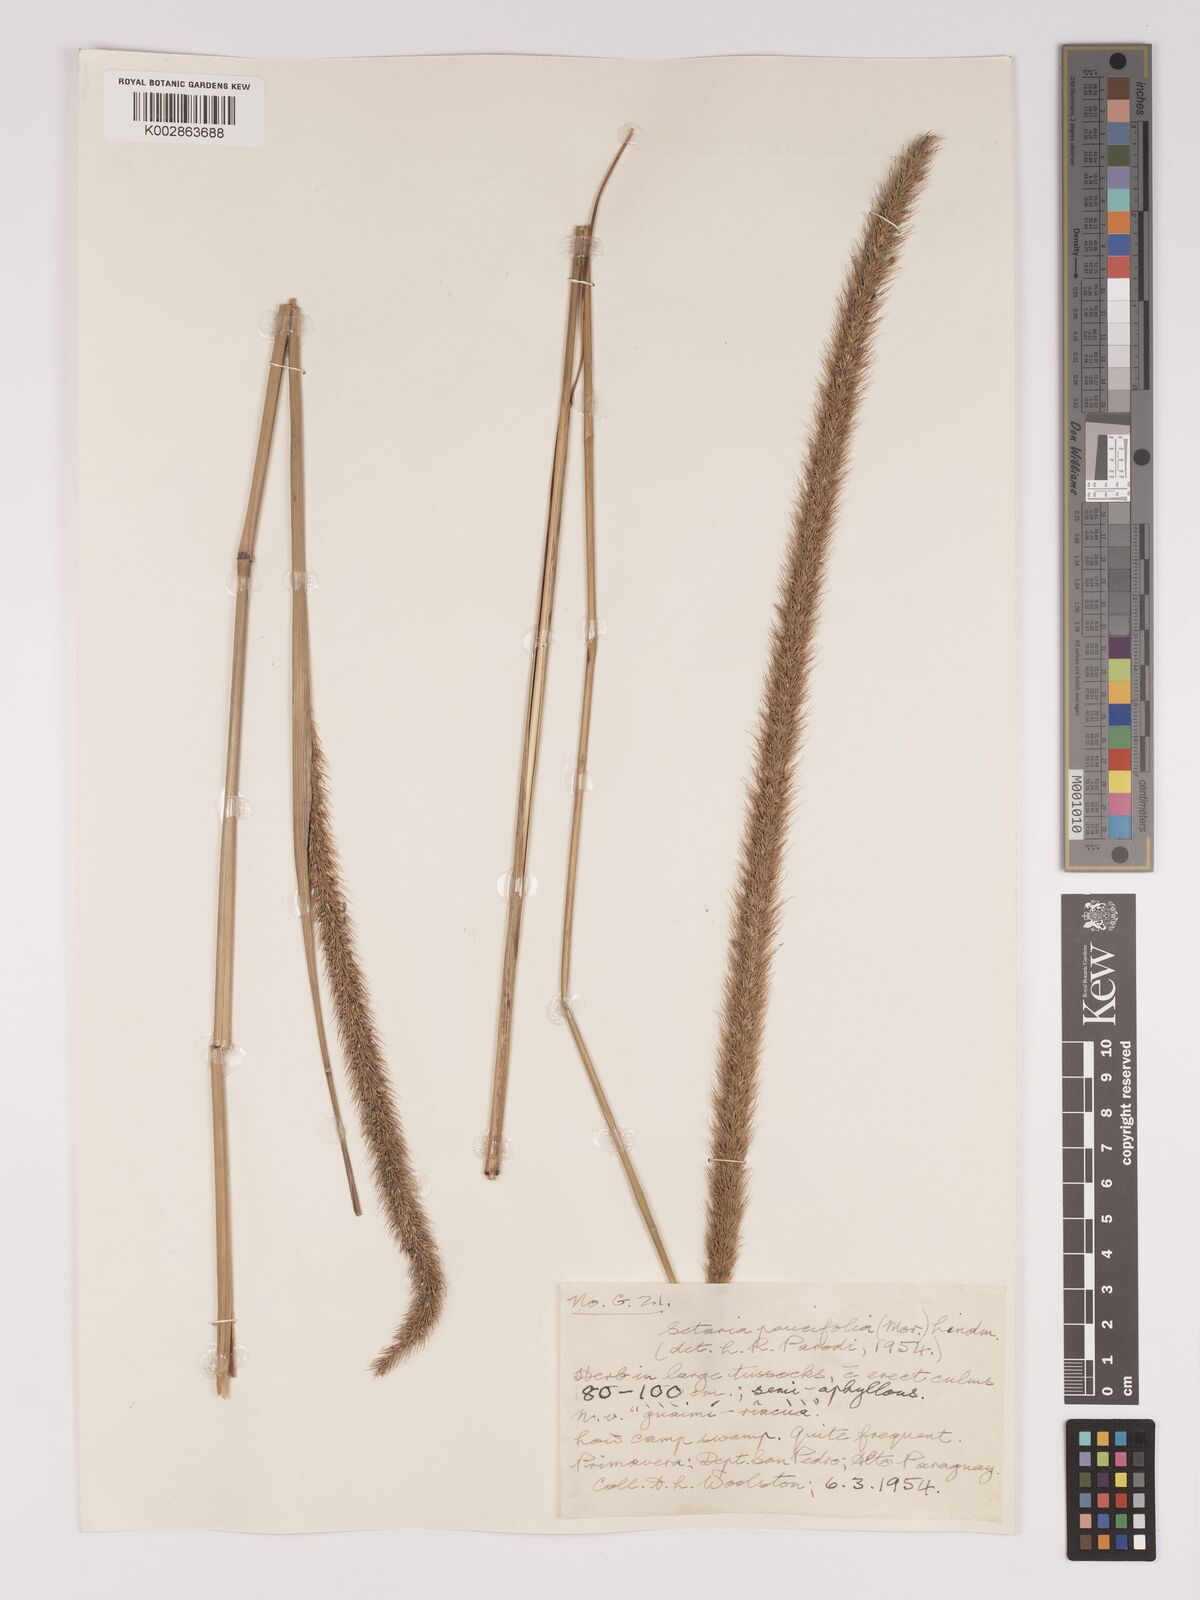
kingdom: Plantae
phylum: Tracheophyta
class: Liliopsida
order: Poales
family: Poaceae
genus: Setaria
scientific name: Setaria paucifolia
